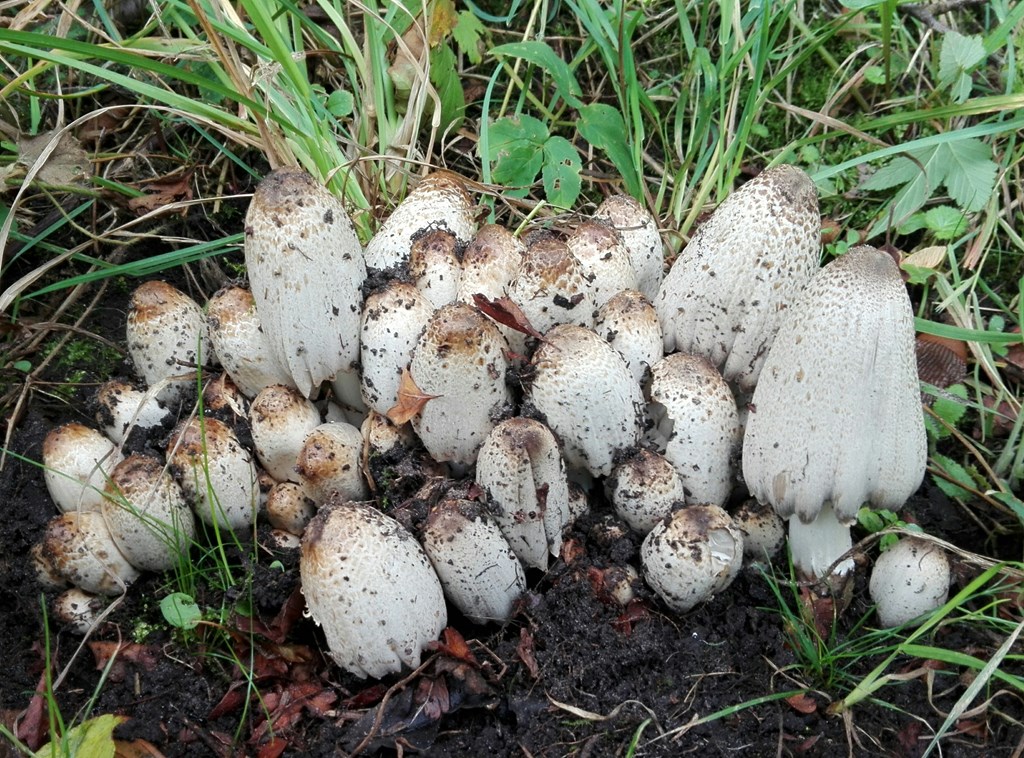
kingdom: Fungi
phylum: Basidiomycota
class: Agaricomycetes
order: Agaricales
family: Psathyrellaceae
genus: Coprinopsis
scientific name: Coprinopsis romagnesiana
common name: brunskællet blækhat
